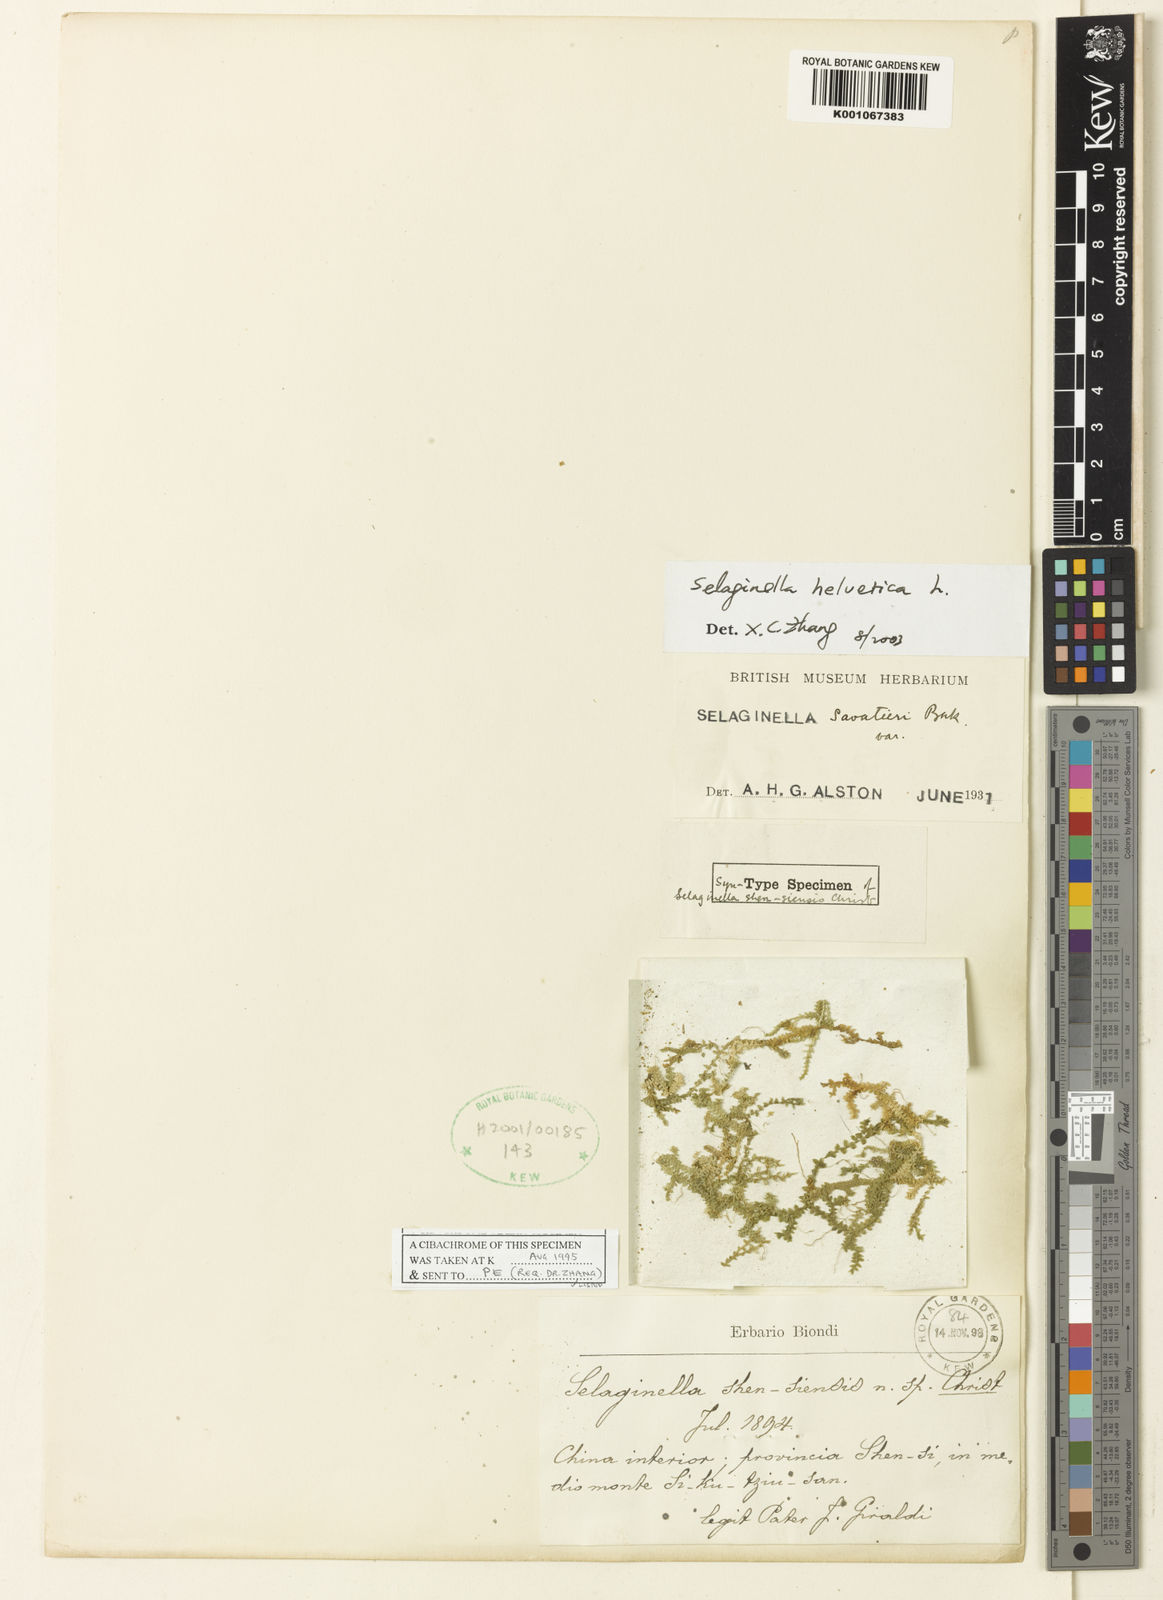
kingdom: Plantae
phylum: Tracheophyta
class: Lycopodiopsida
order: Selaginellales
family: Selaginellaceae
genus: Selaginella
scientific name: Selaginella nipponica
